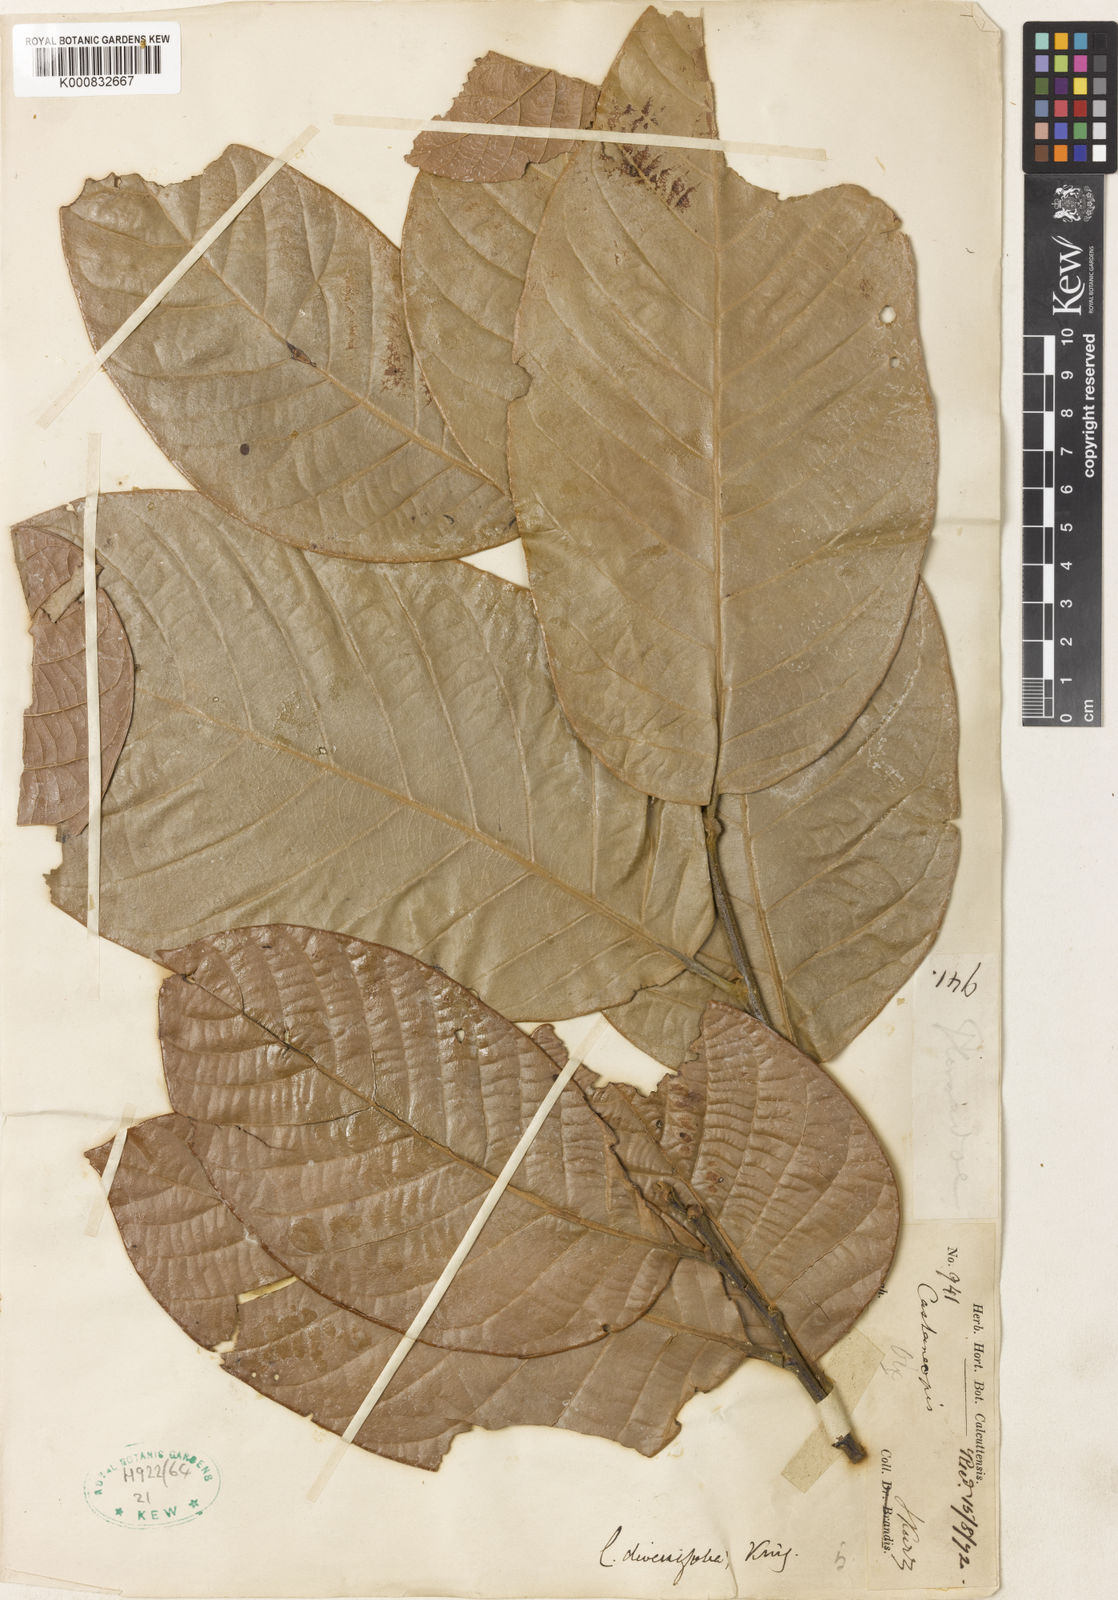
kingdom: Plantae
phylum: Tracheophyta
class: Magnoliopsida
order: Fagales
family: Fagaceae
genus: Castanopsis
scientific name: Castanopsis diversifolia
